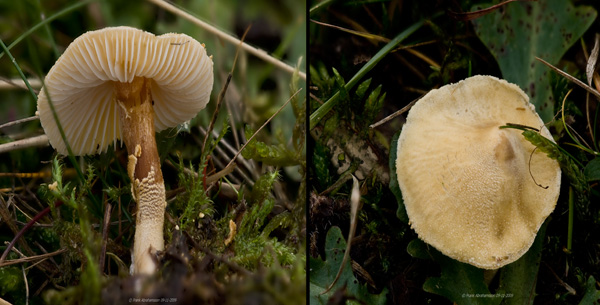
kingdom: Fungi
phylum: Basidiomycota
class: Agaricomycetes
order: Agaricales
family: Tricholomataceae
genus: Cystoderma
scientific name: Cystoderma amianthinum
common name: okkergul grynhat
